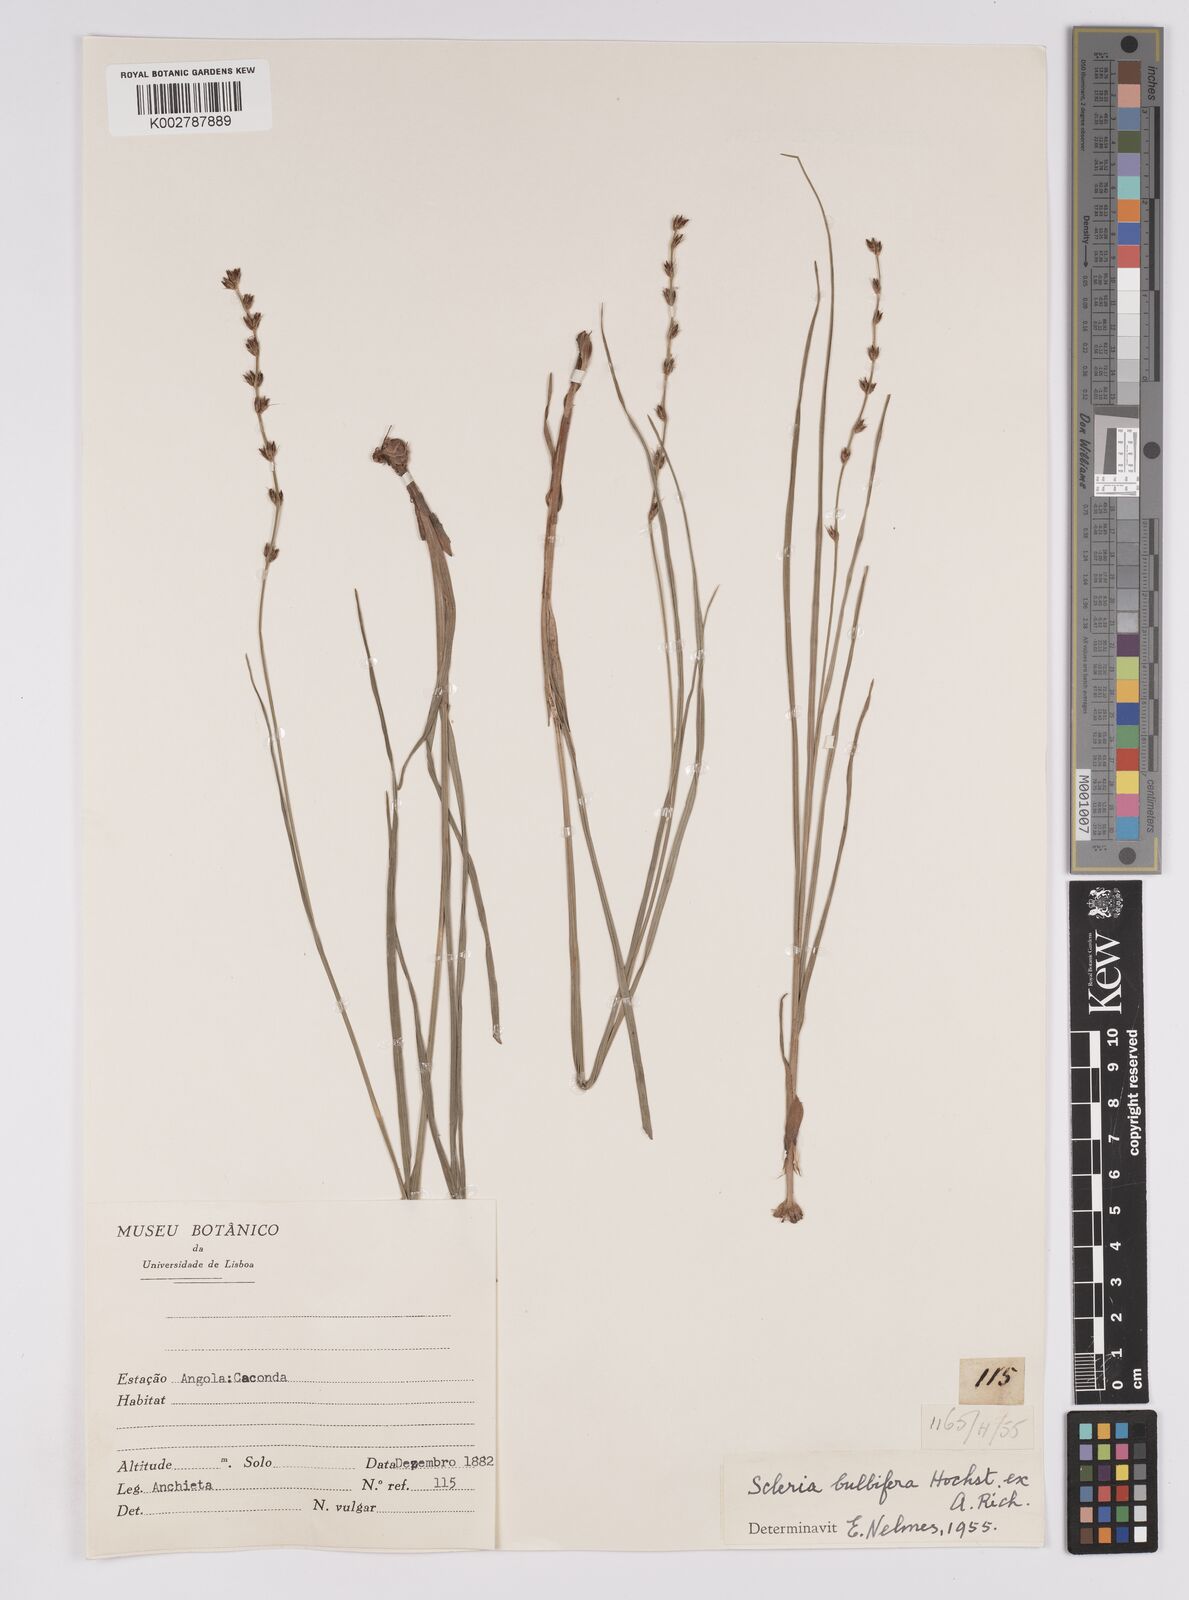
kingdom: Plantae
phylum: Tracheophyta
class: Liliopsida
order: Poales
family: Cyperaceae
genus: Scleria
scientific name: Scleria bulbifera
